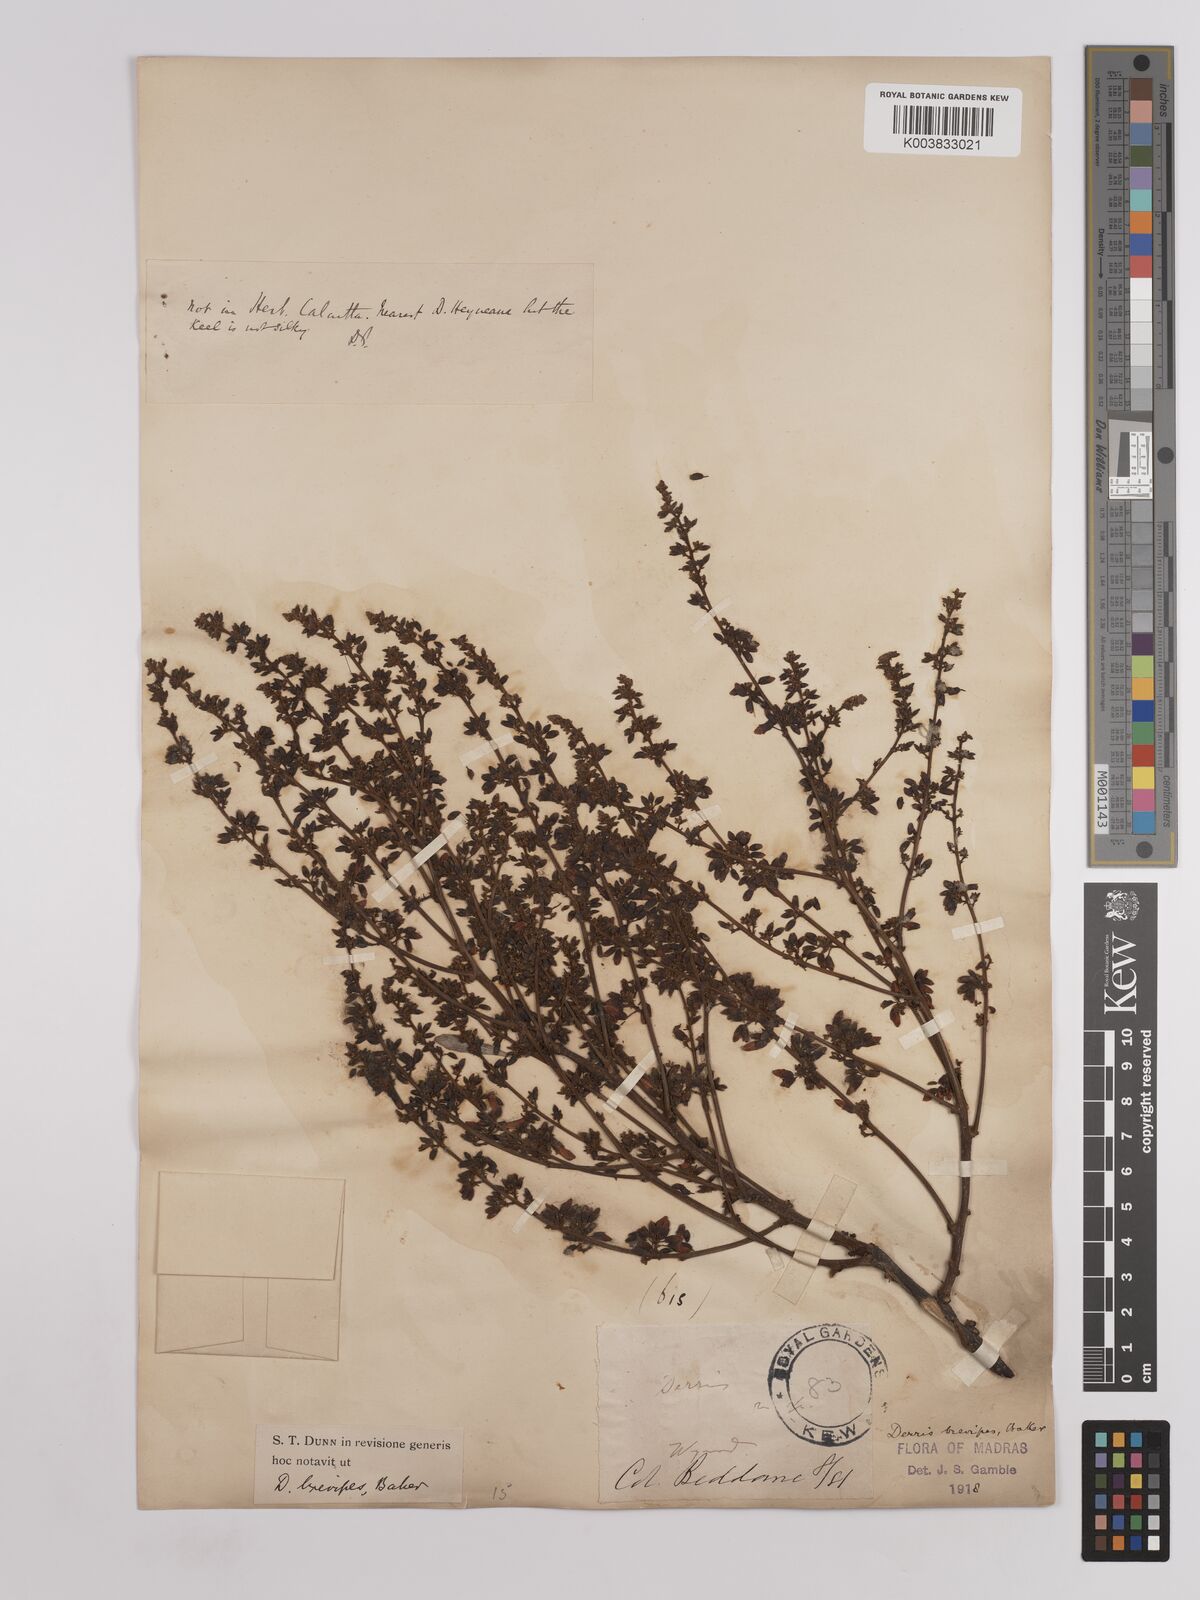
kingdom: Plantae
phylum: Tracheophyta
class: Magnoliopsida
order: Fabales
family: Fabaceae
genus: Derris
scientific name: Derris brevipes
